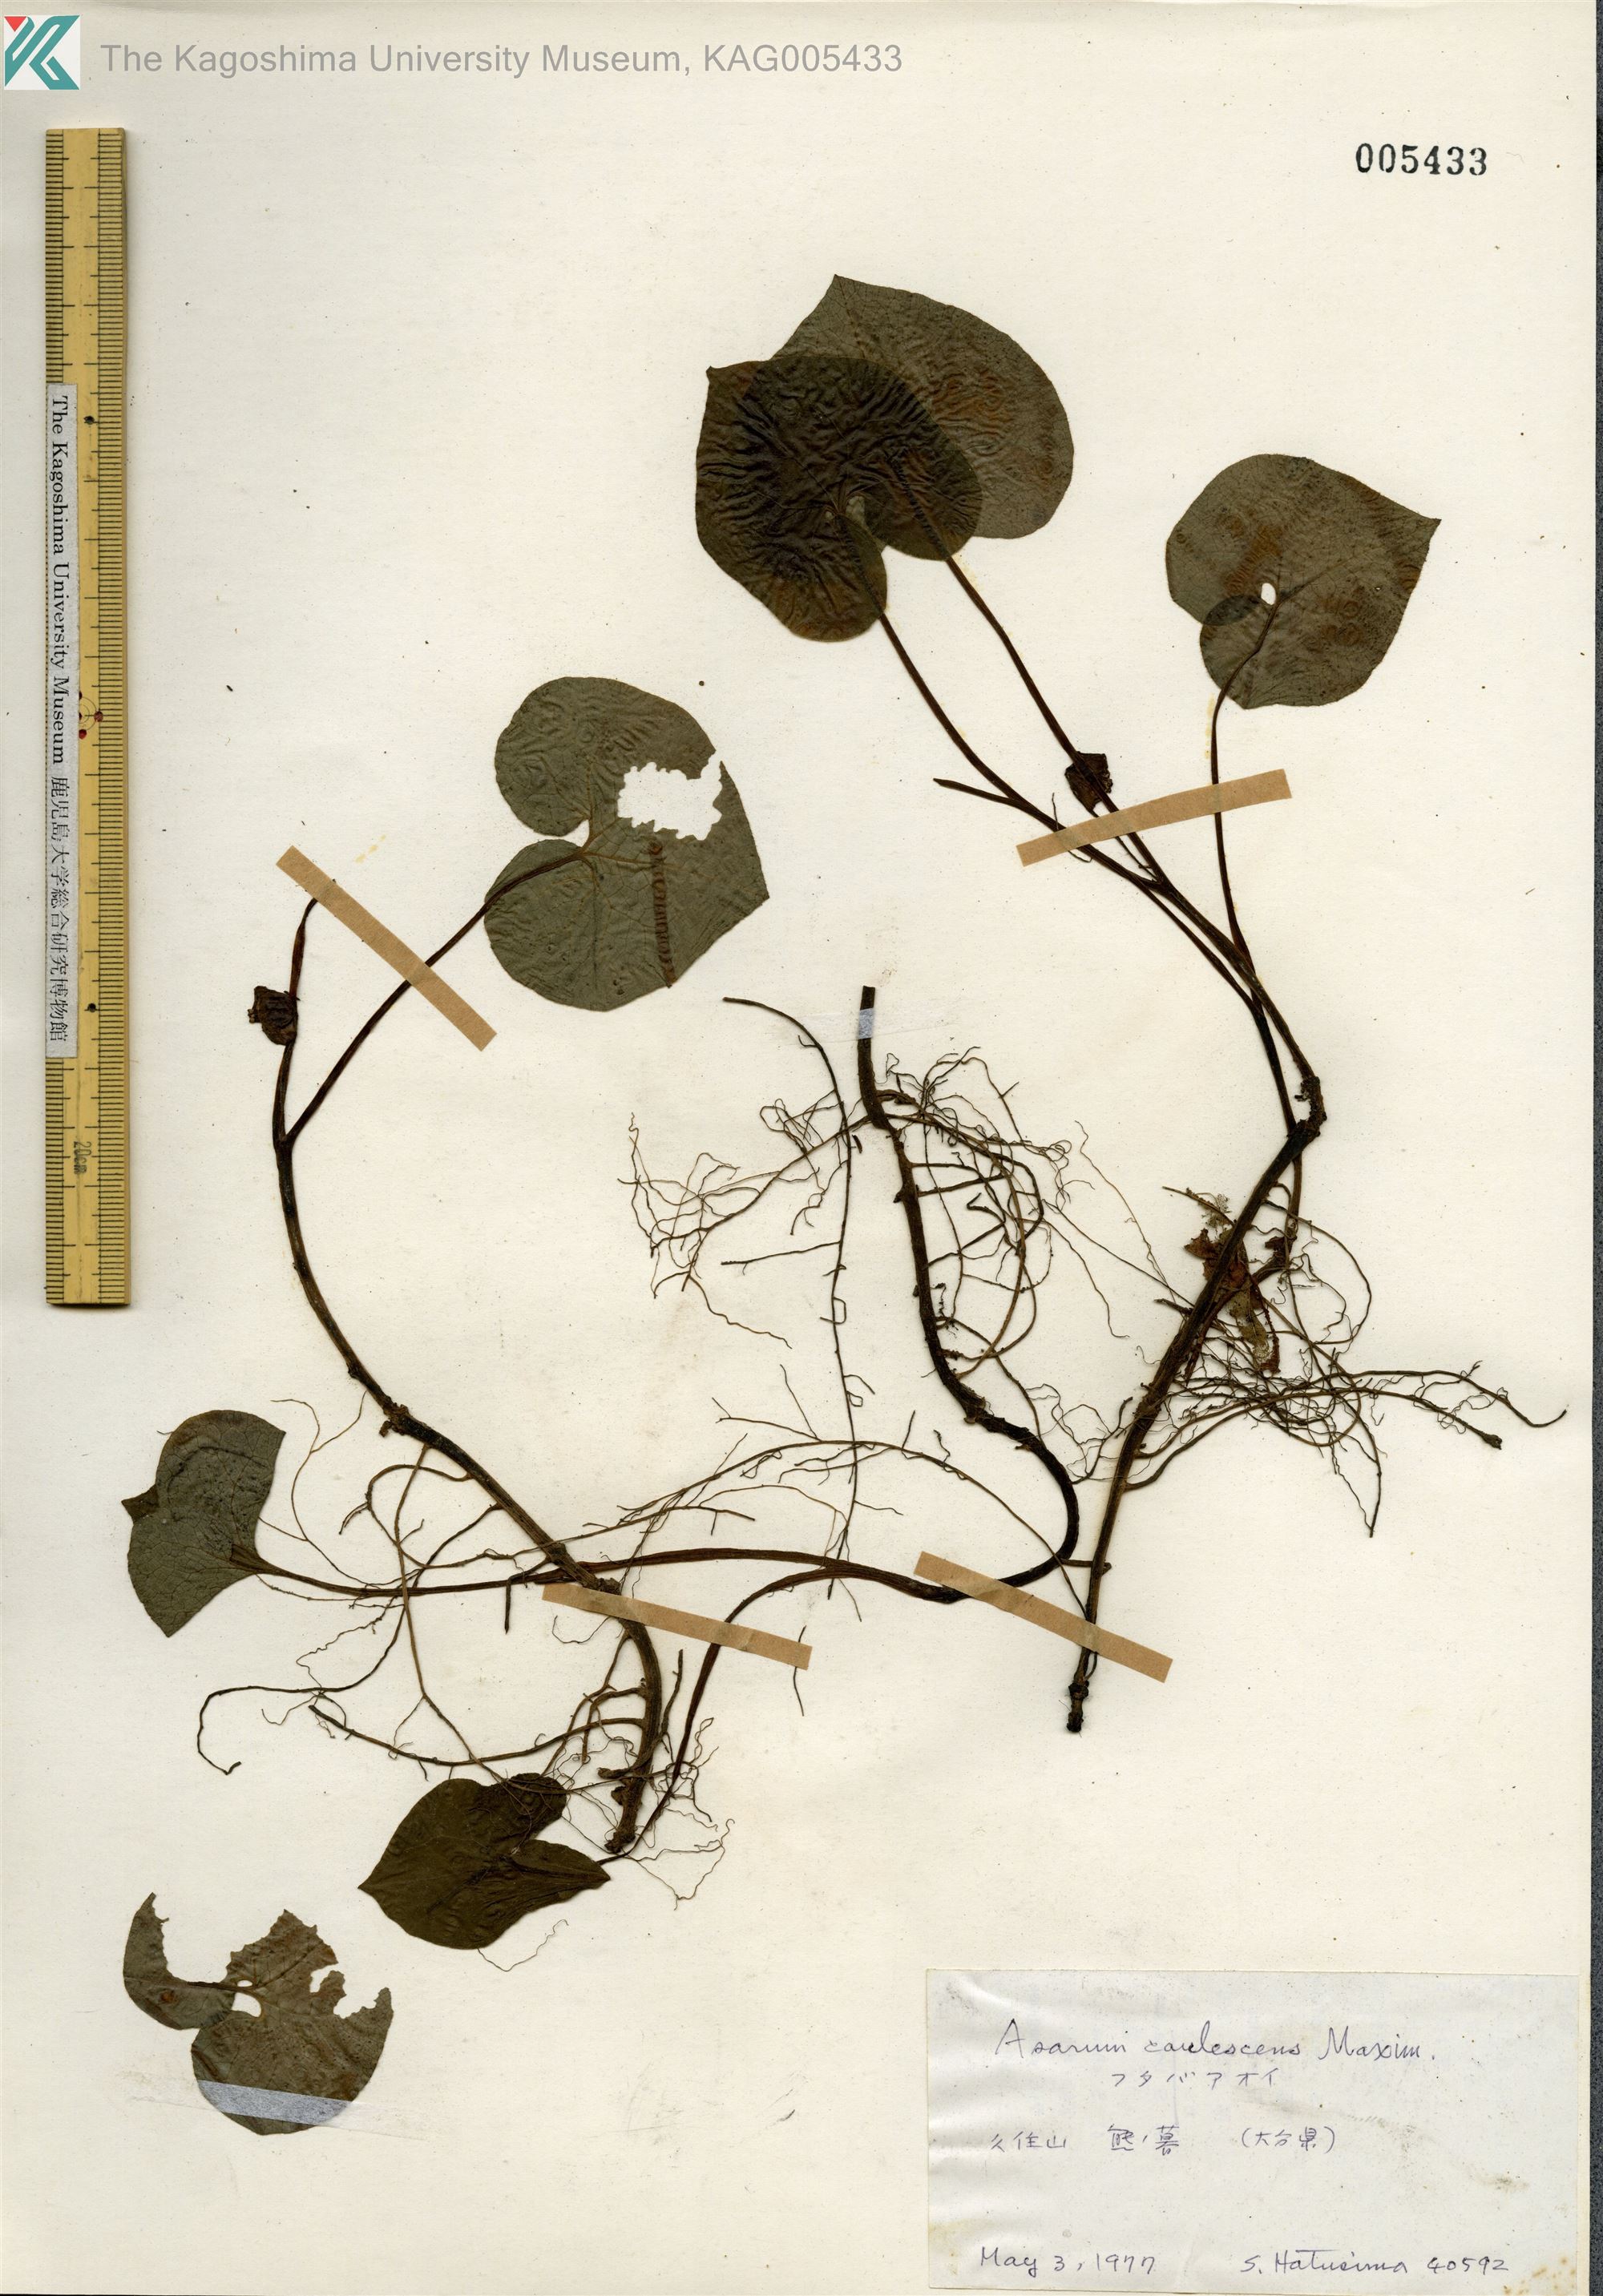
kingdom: Plantae
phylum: Tracheophyta
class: Magnoliopsida
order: Piperales
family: Aristolochiaceae
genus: Asarum
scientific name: Asarum caulescens
